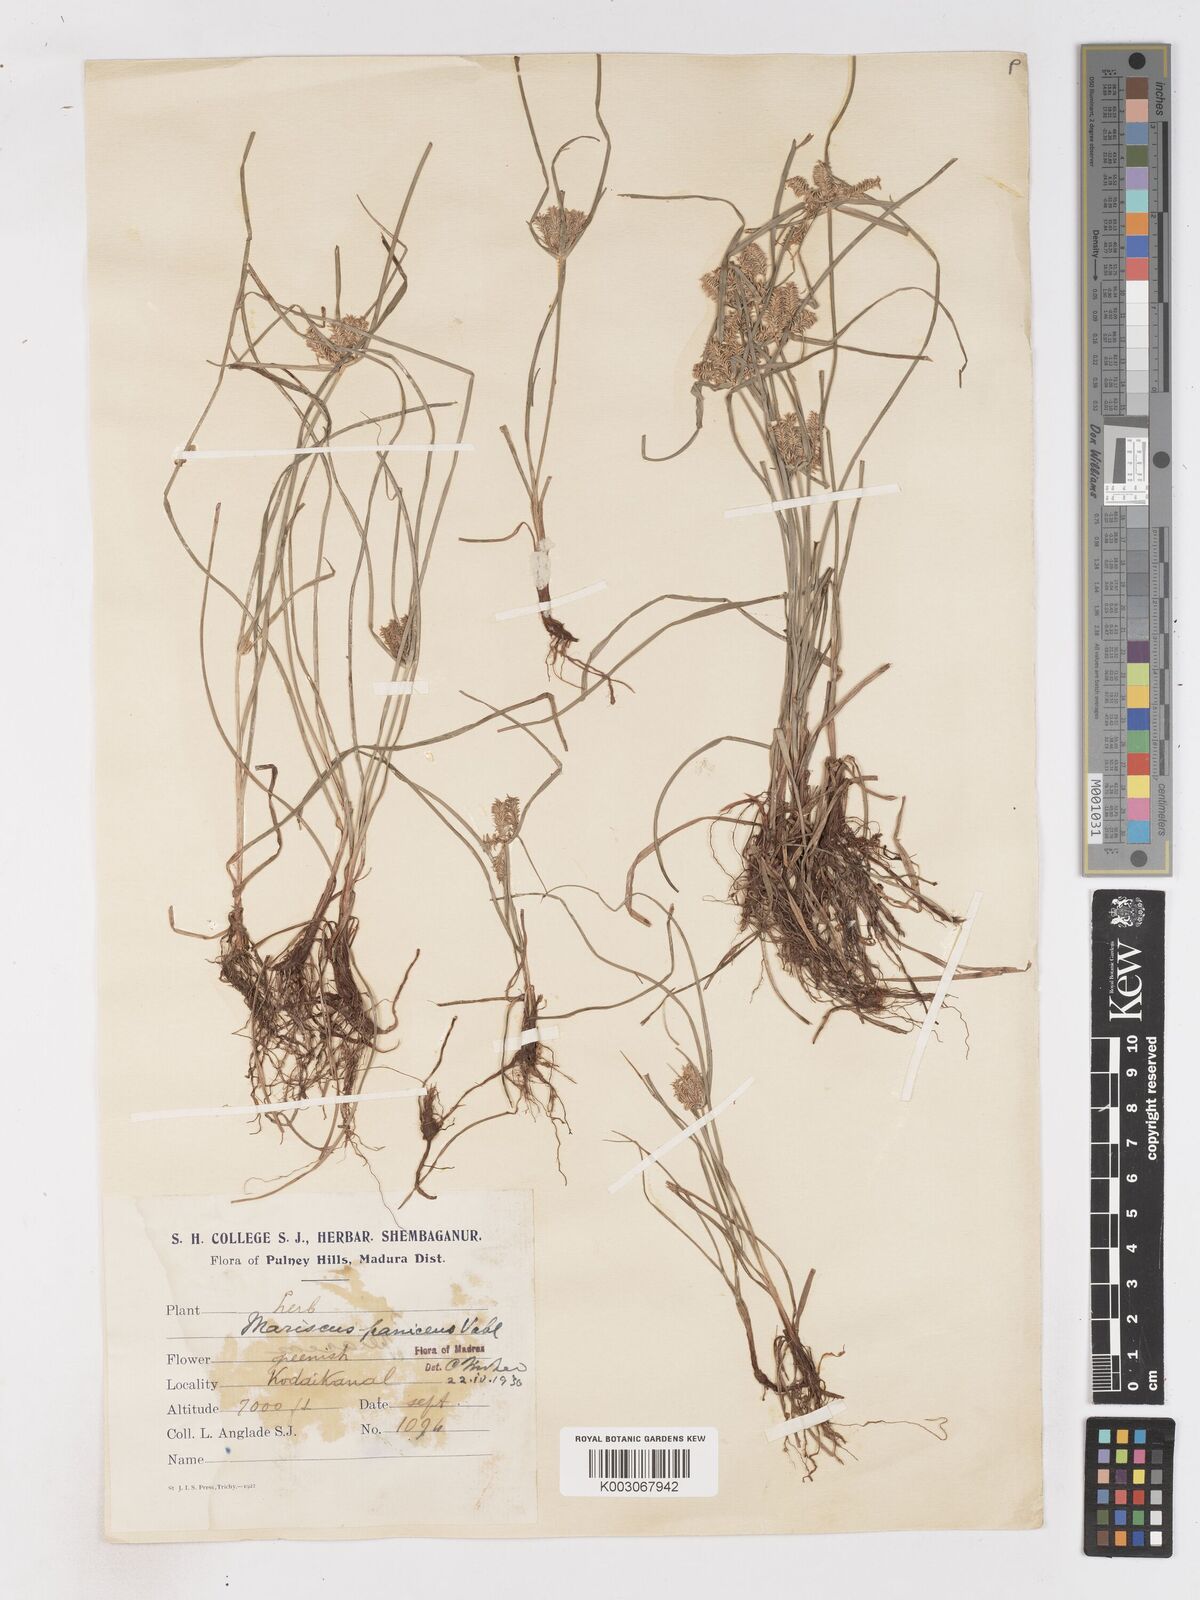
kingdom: Plantae
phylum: Tracheophyta
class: Liliopsida
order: Poales
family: Cyperaceae
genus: Cyperus
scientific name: Cyperus paniceus
